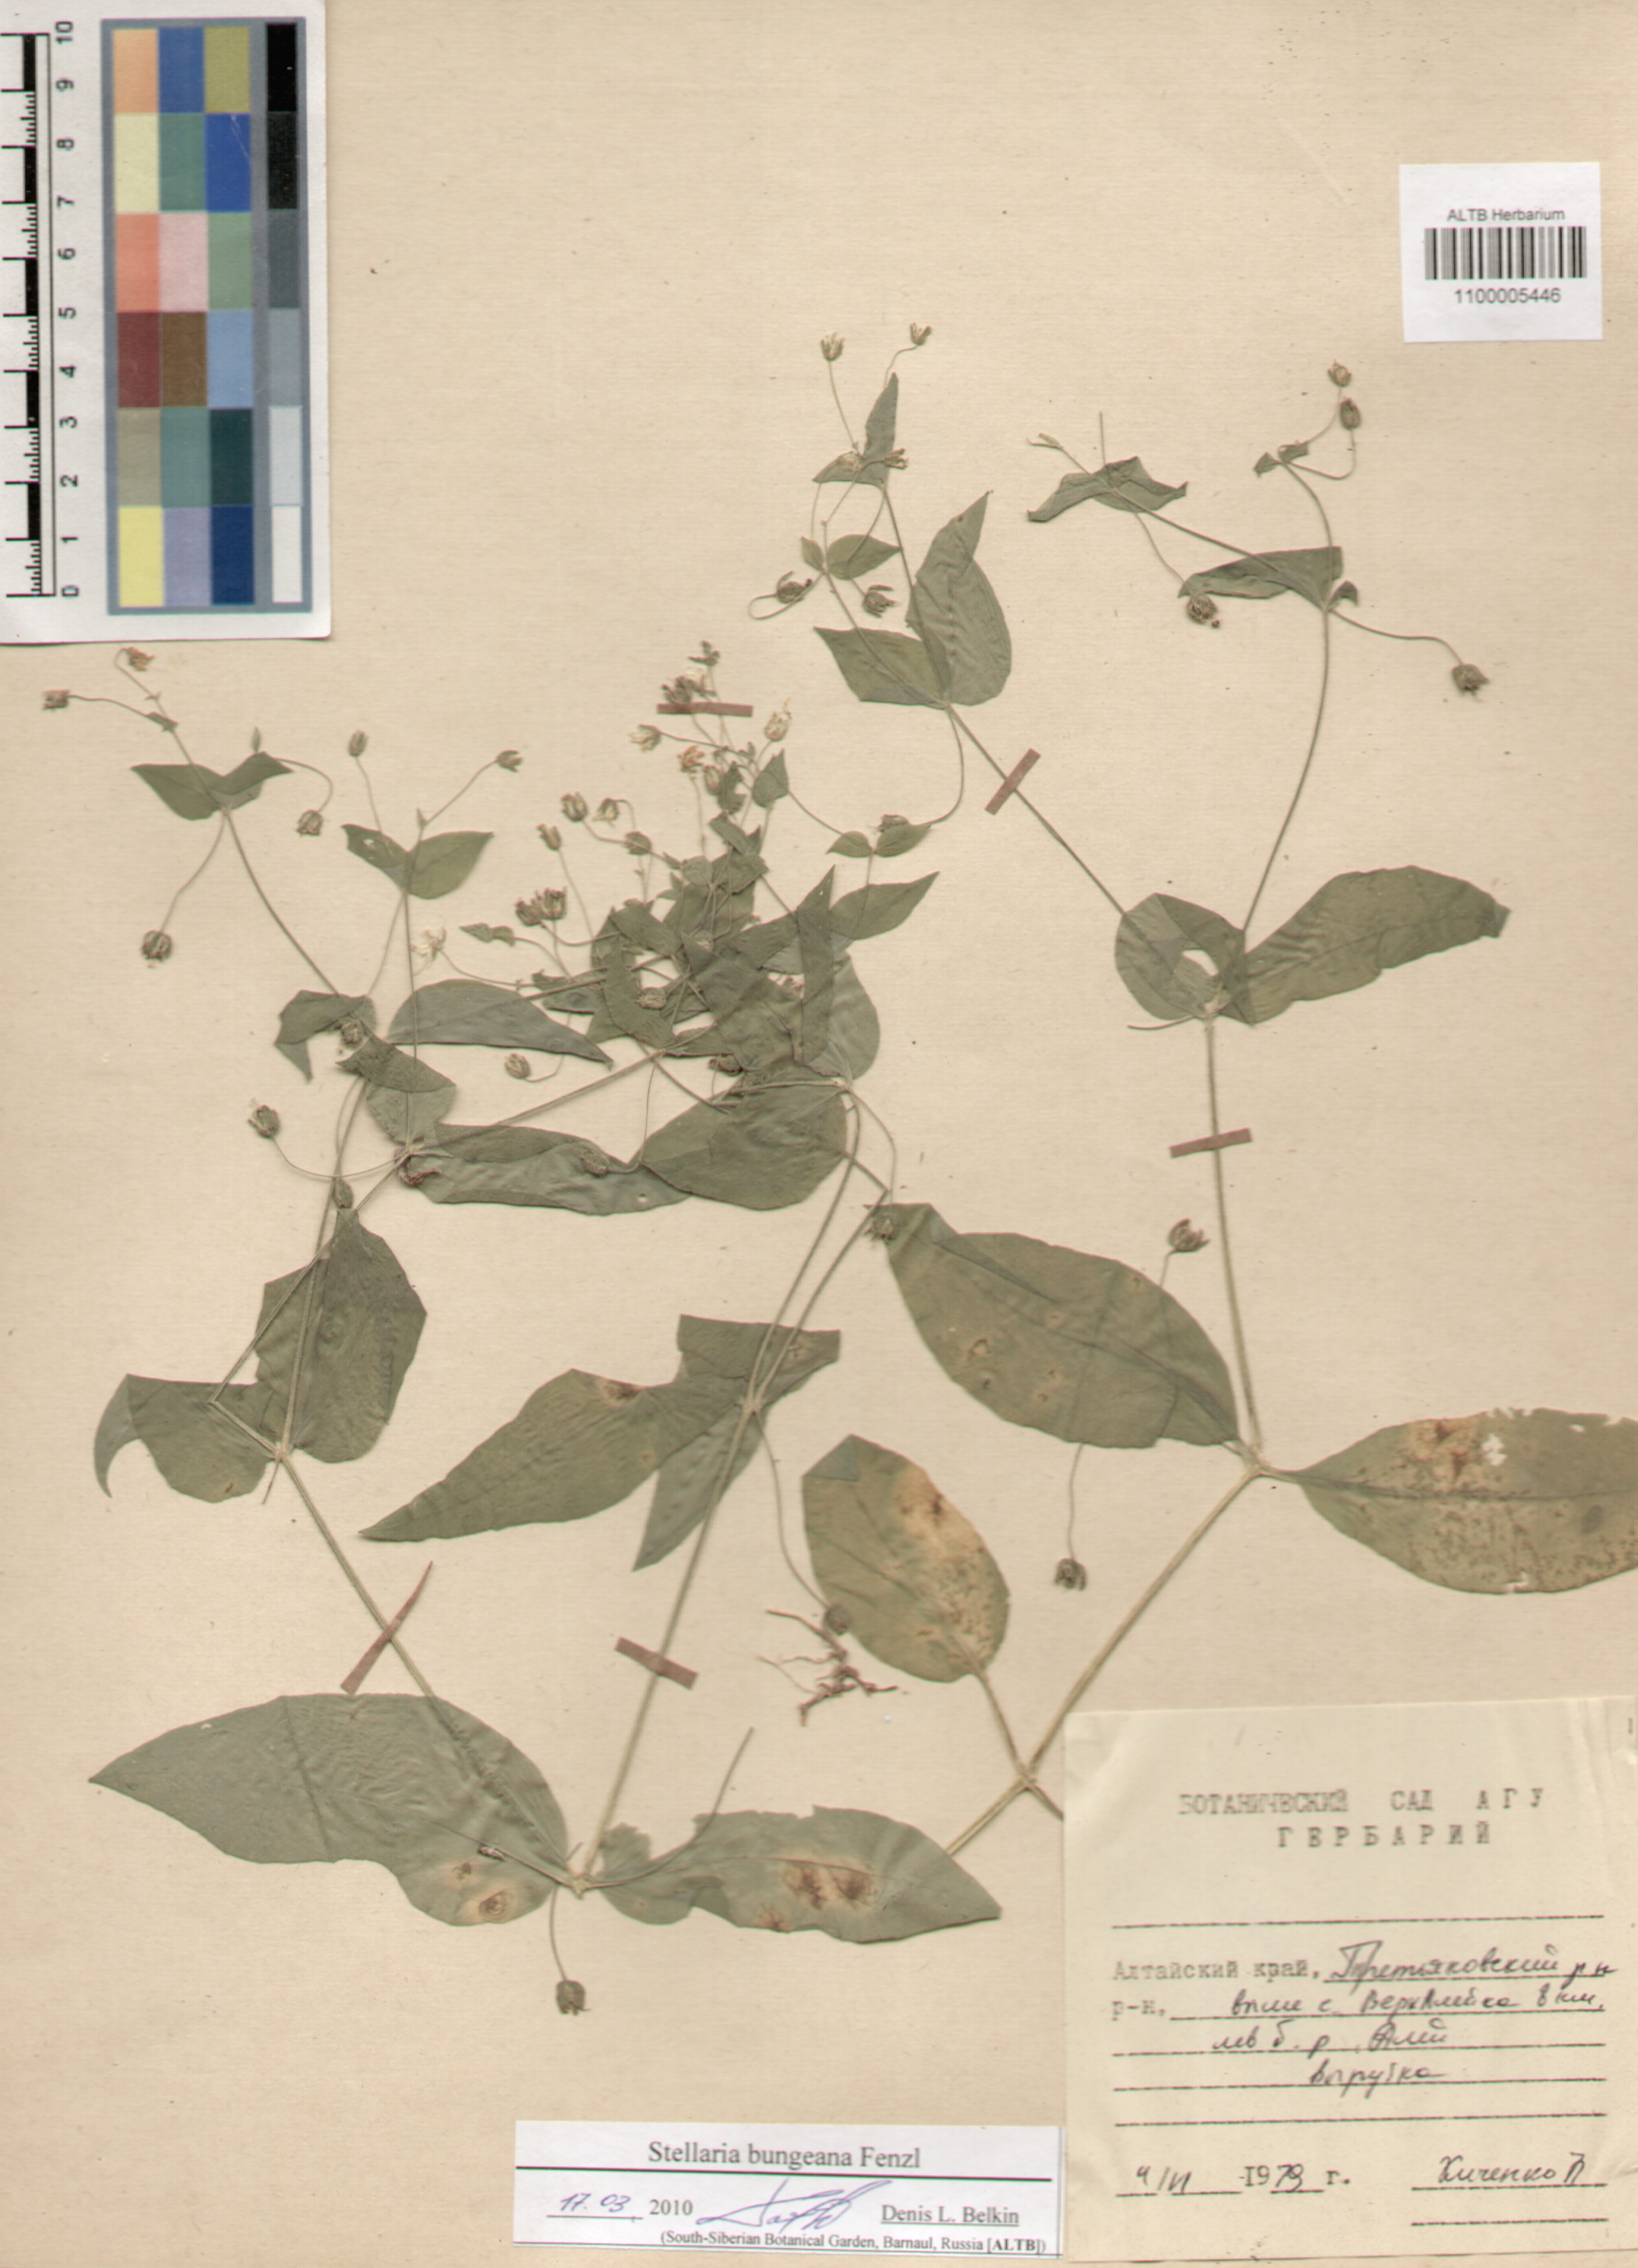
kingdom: Plantae
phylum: Tracheophyta
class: Magnoliopsida
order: Caryophyllales
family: Caryophyllaceae
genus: Stellaria
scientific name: Stellaria bungeana
